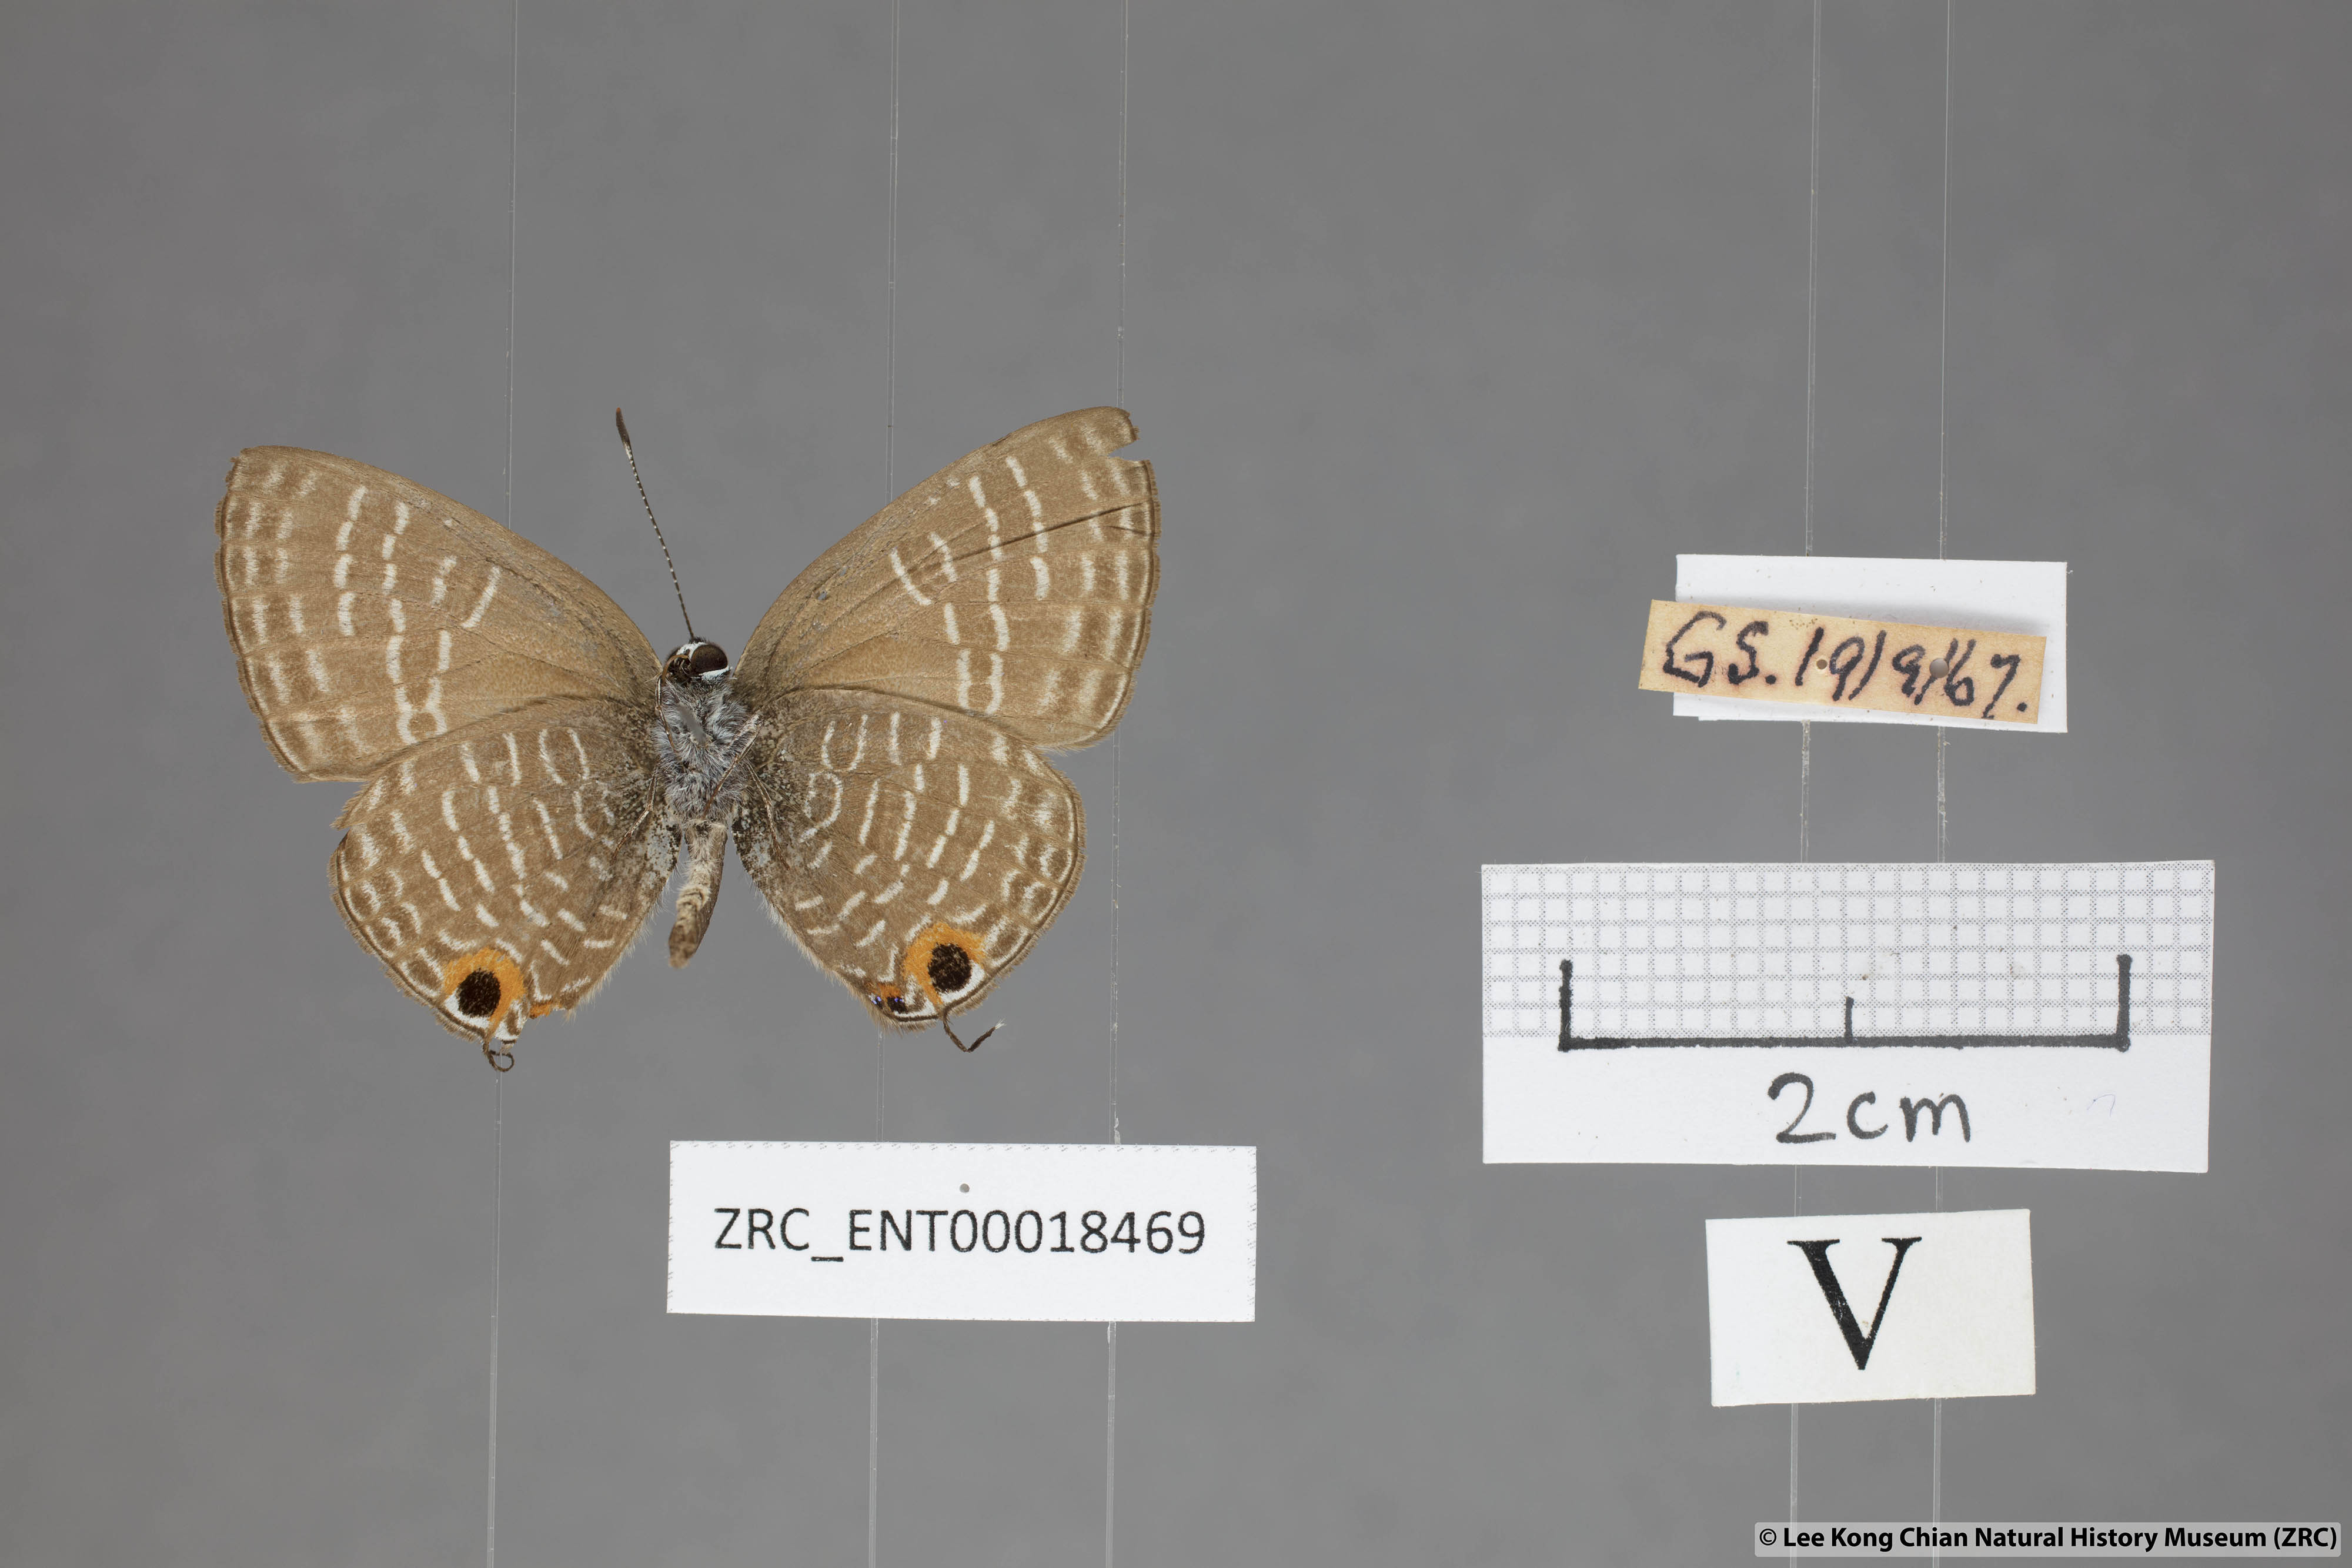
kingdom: Animalia
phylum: Arthropoda
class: Insecta
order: Lepidoptera
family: Lycaenidae
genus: Nacaduba
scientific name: Nacaduba solta
